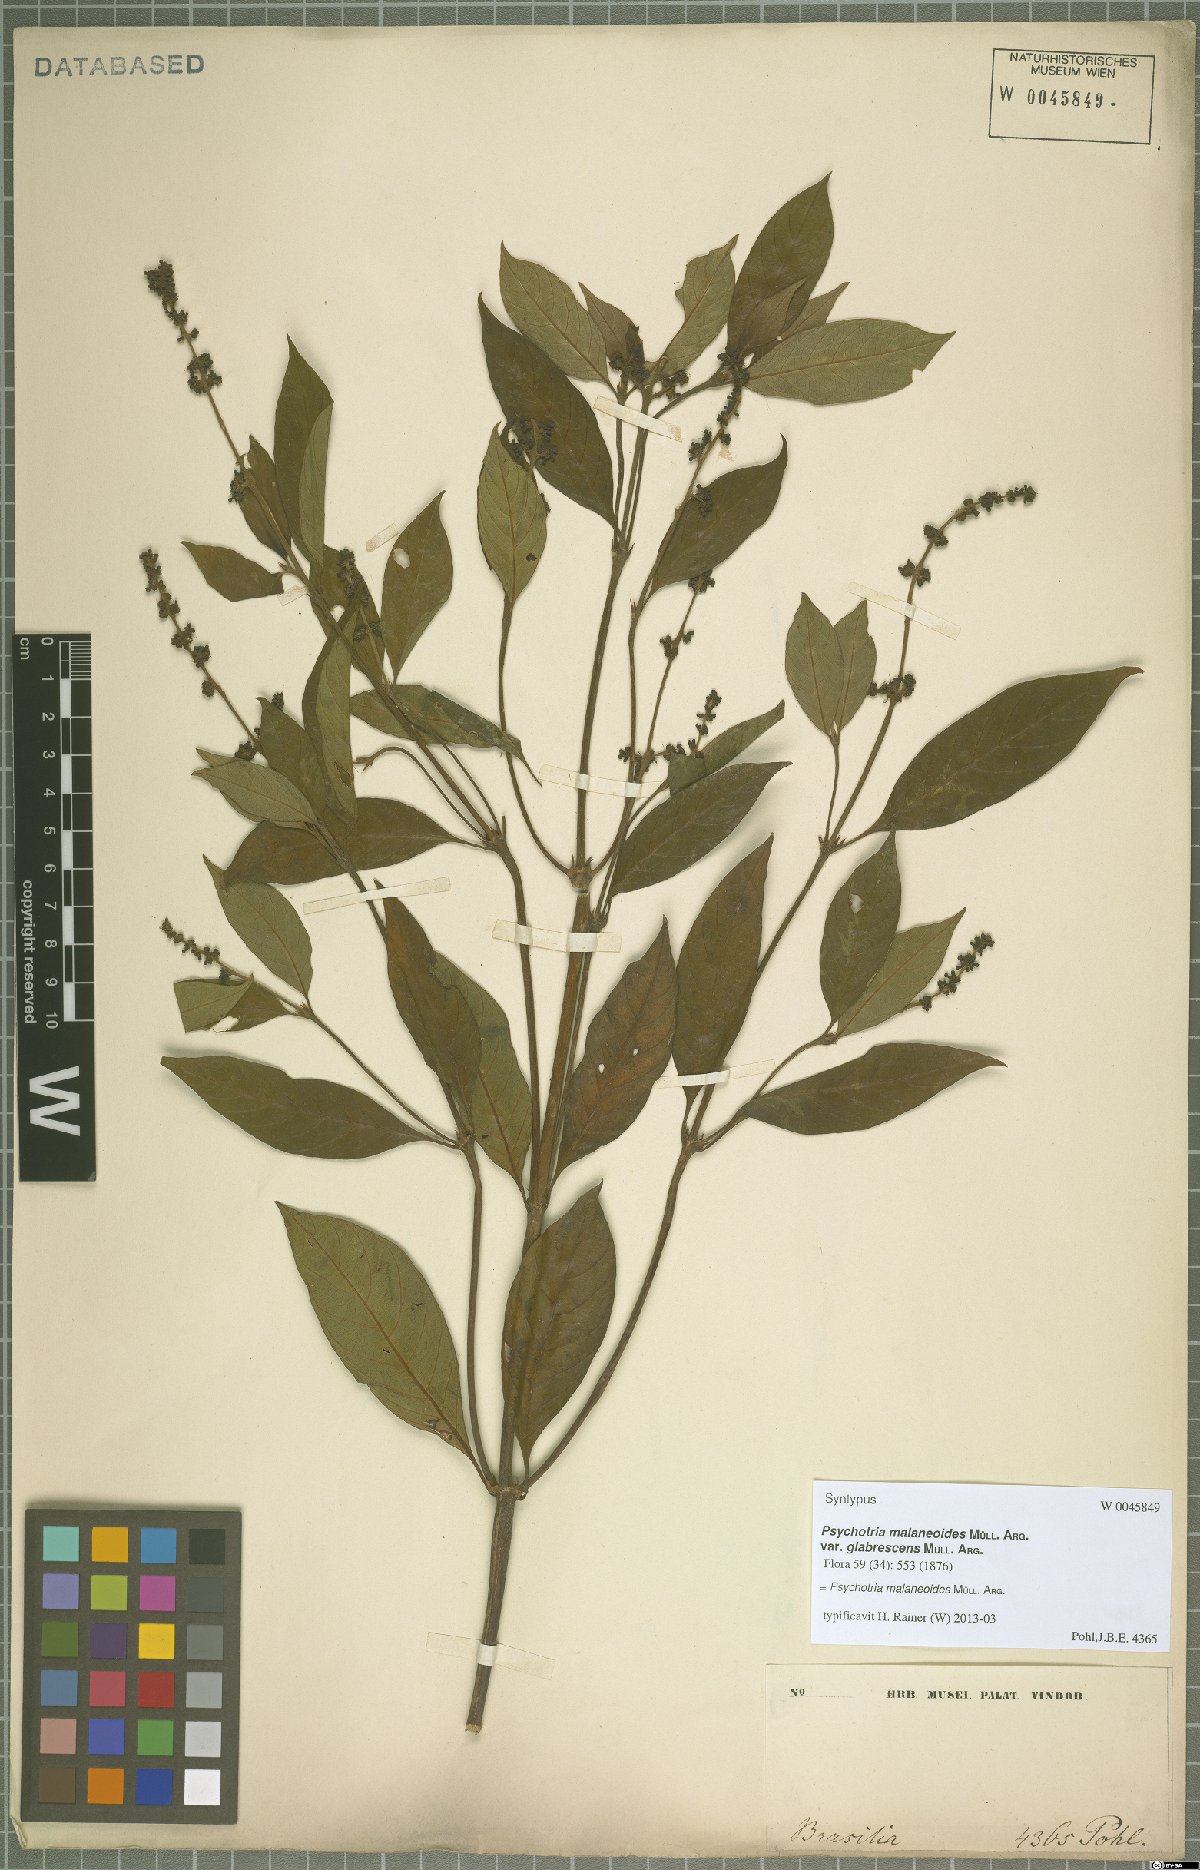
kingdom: Plantae
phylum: Tracheophyta
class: Magnoliopsida
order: Gentianales
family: Rubiaceae
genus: Palicourea
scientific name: Palicourea malaneoides
